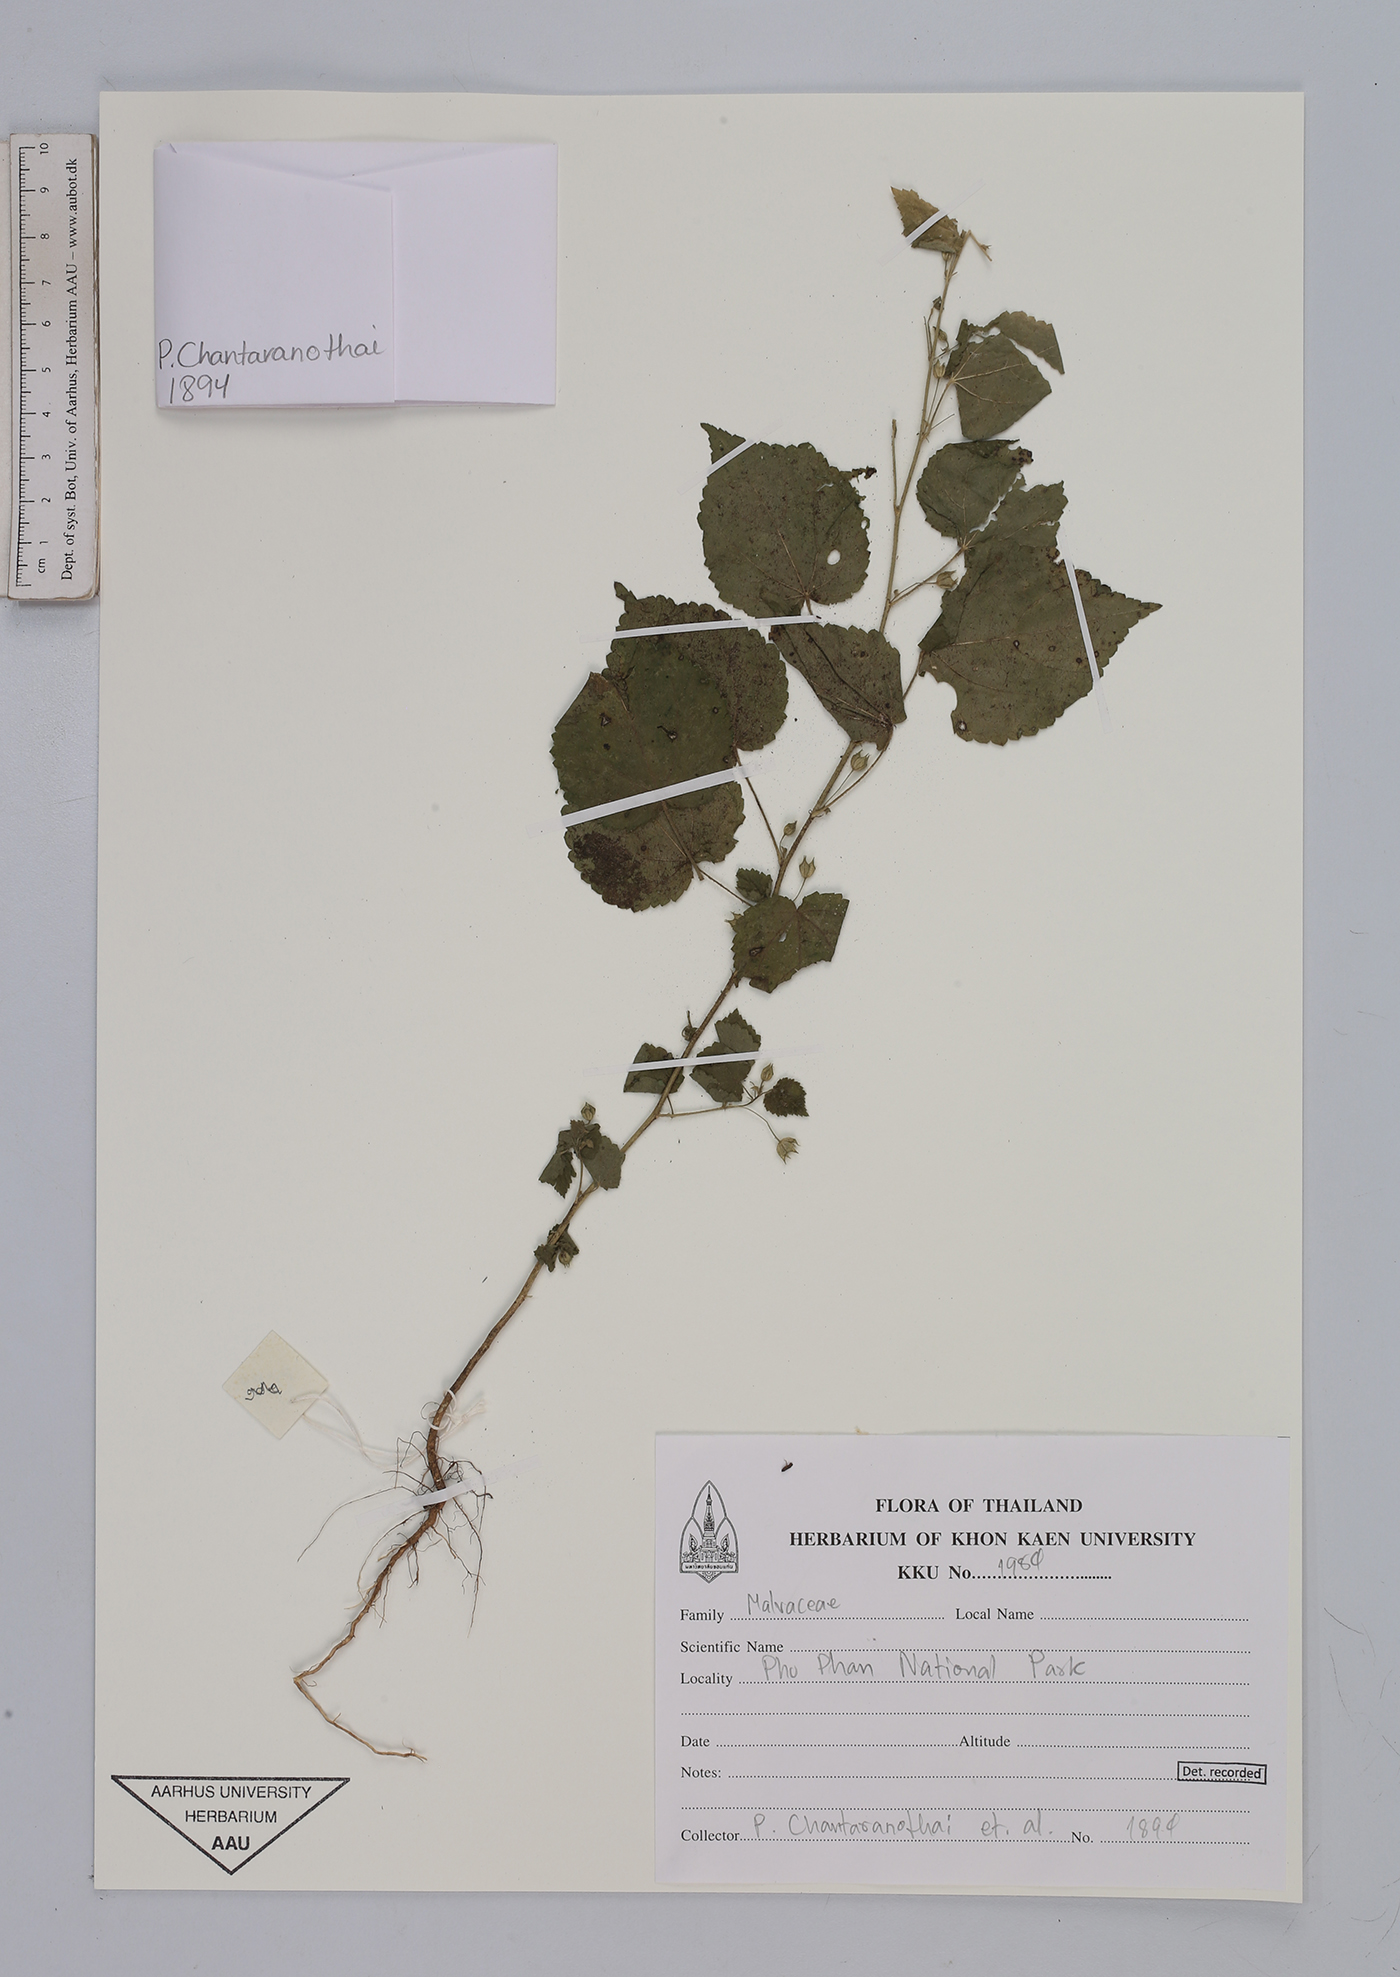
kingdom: Plantae
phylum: Tracheophyta
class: Magnoliopsida
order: Malvales
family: Malvaceae
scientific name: Malvaceae
